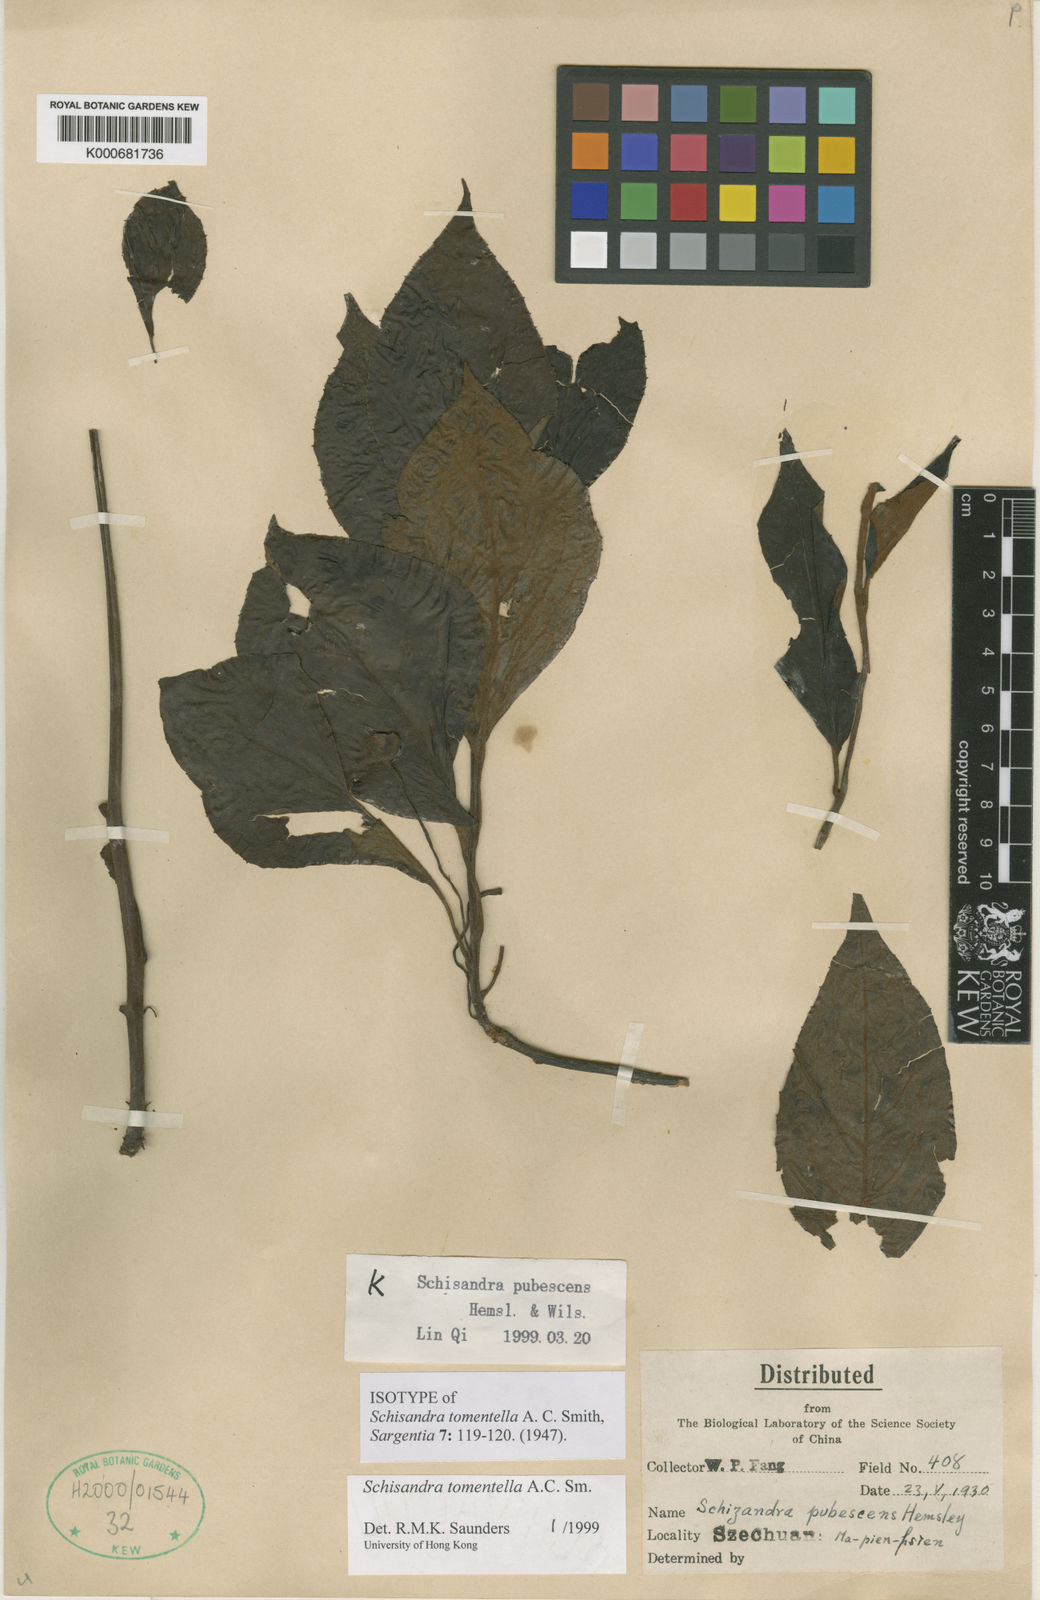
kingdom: Plantae
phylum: Tracheophyta
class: Magnoliopsida
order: Austrobaileyales
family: Schisandraceae
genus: Schisandra
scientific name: Schisandra tomentella
